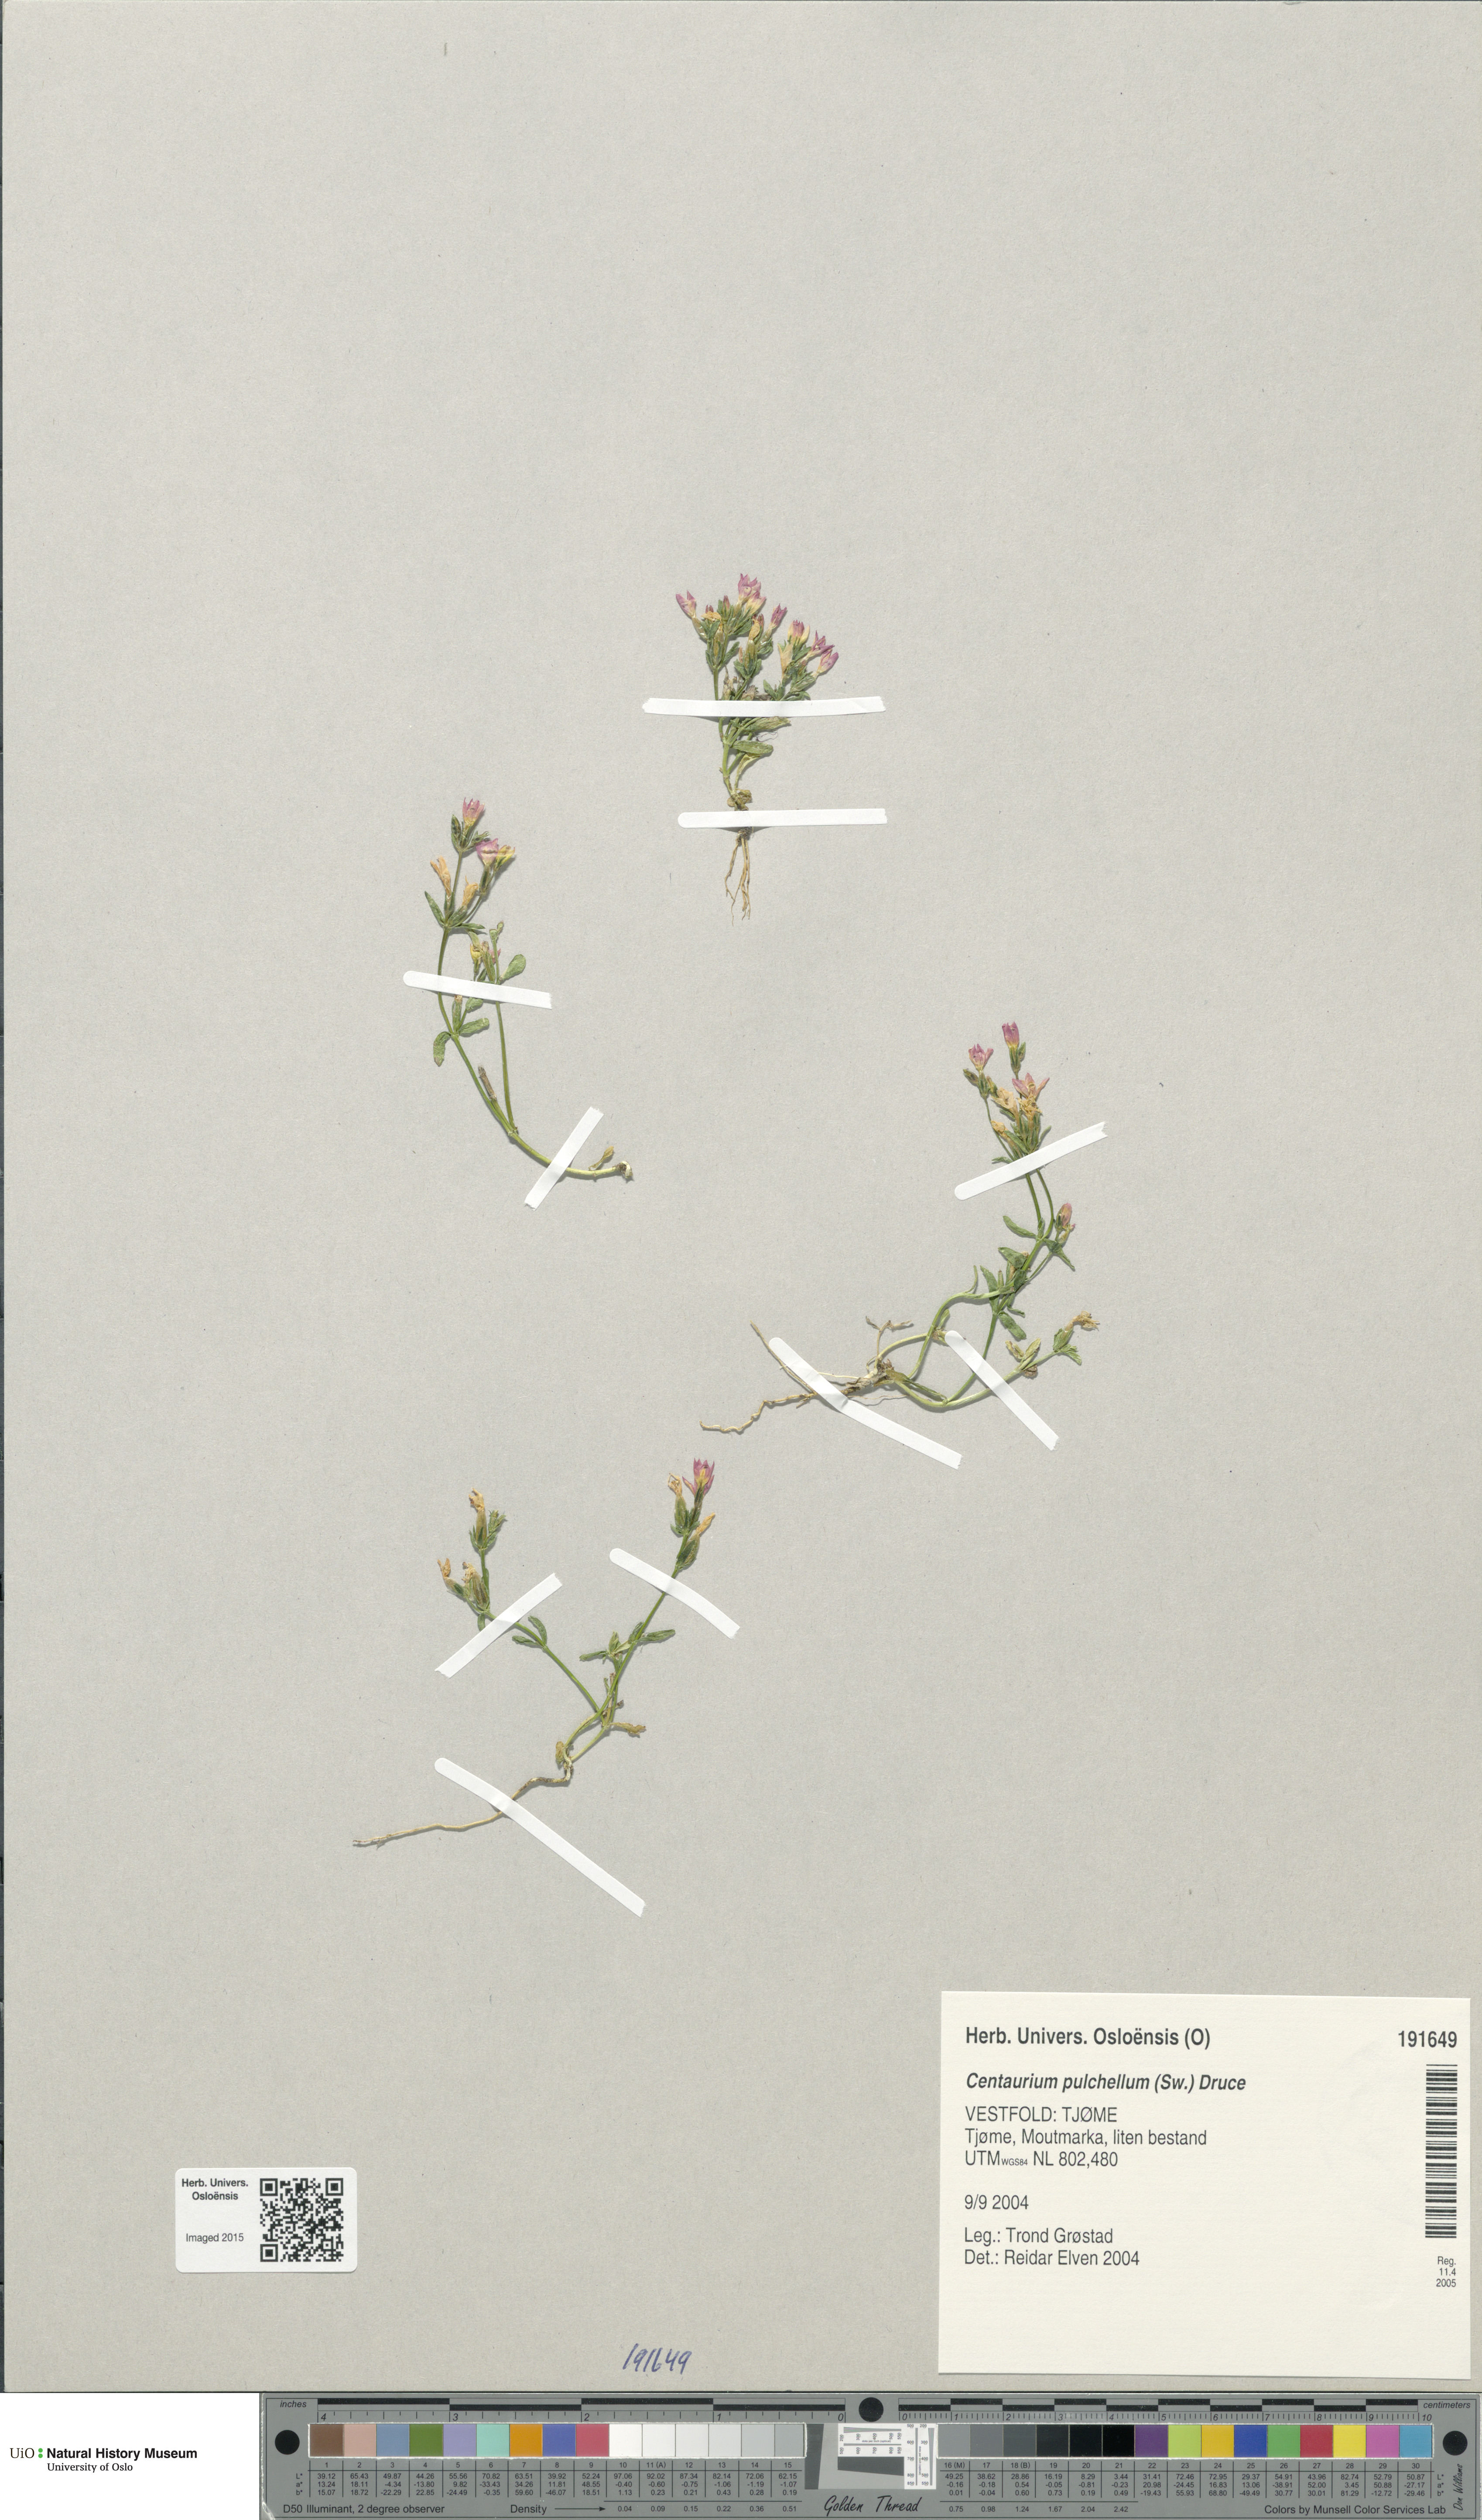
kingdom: Plantae
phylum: Tracheophyta
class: Magnoliopsida
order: Gentianales
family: Gentianaceae
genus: Centaurium
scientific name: Centaurium pulchellum
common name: Lesser centaury
